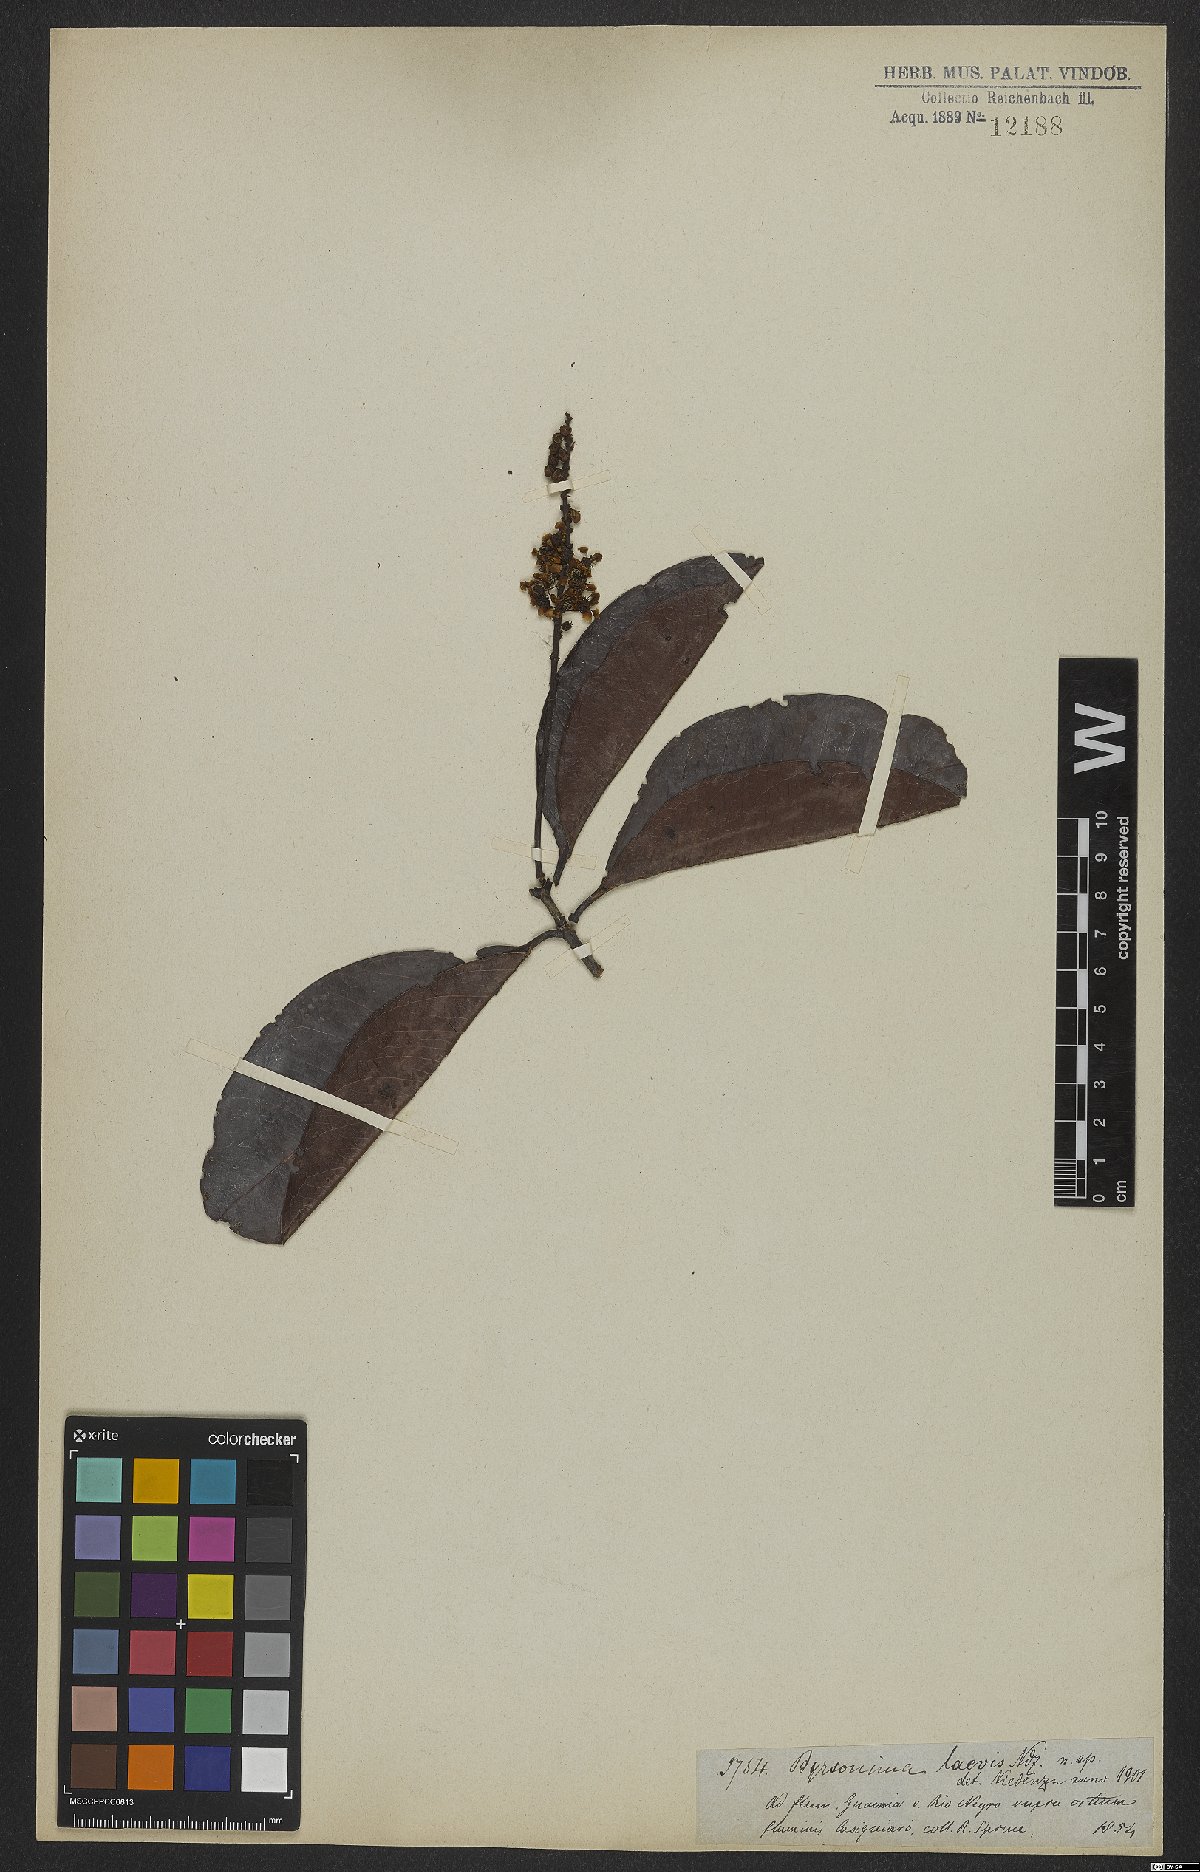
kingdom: Plantae
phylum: Tracheophyta
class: Magnoliopsida
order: Malpighiales
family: Malpighiaceae
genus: Byrsonima
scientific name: Byrsonima laevis
